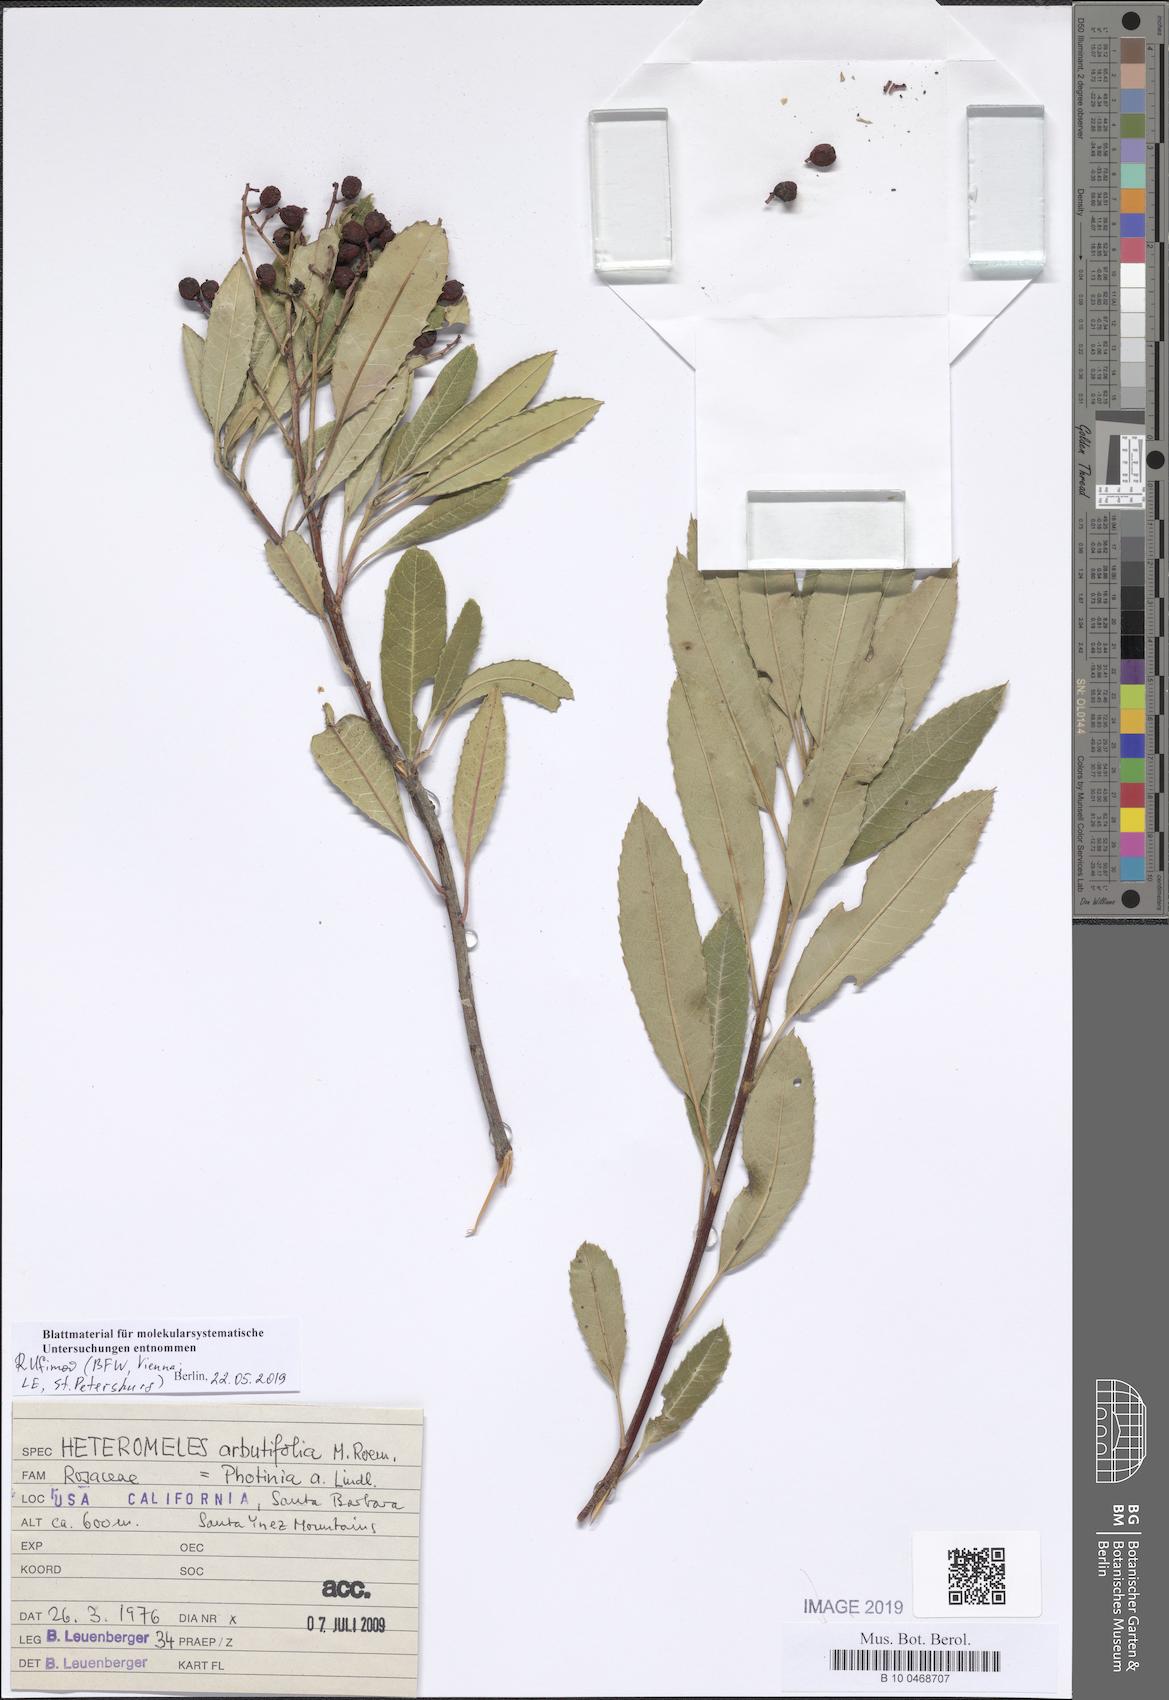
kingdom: Plantae
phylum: Tracheophyta
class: Magnoliopsida
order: Rosales
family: Rosaceae
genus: Heteromeles
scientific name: Heteromeles arbutifolia
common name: California-holly
